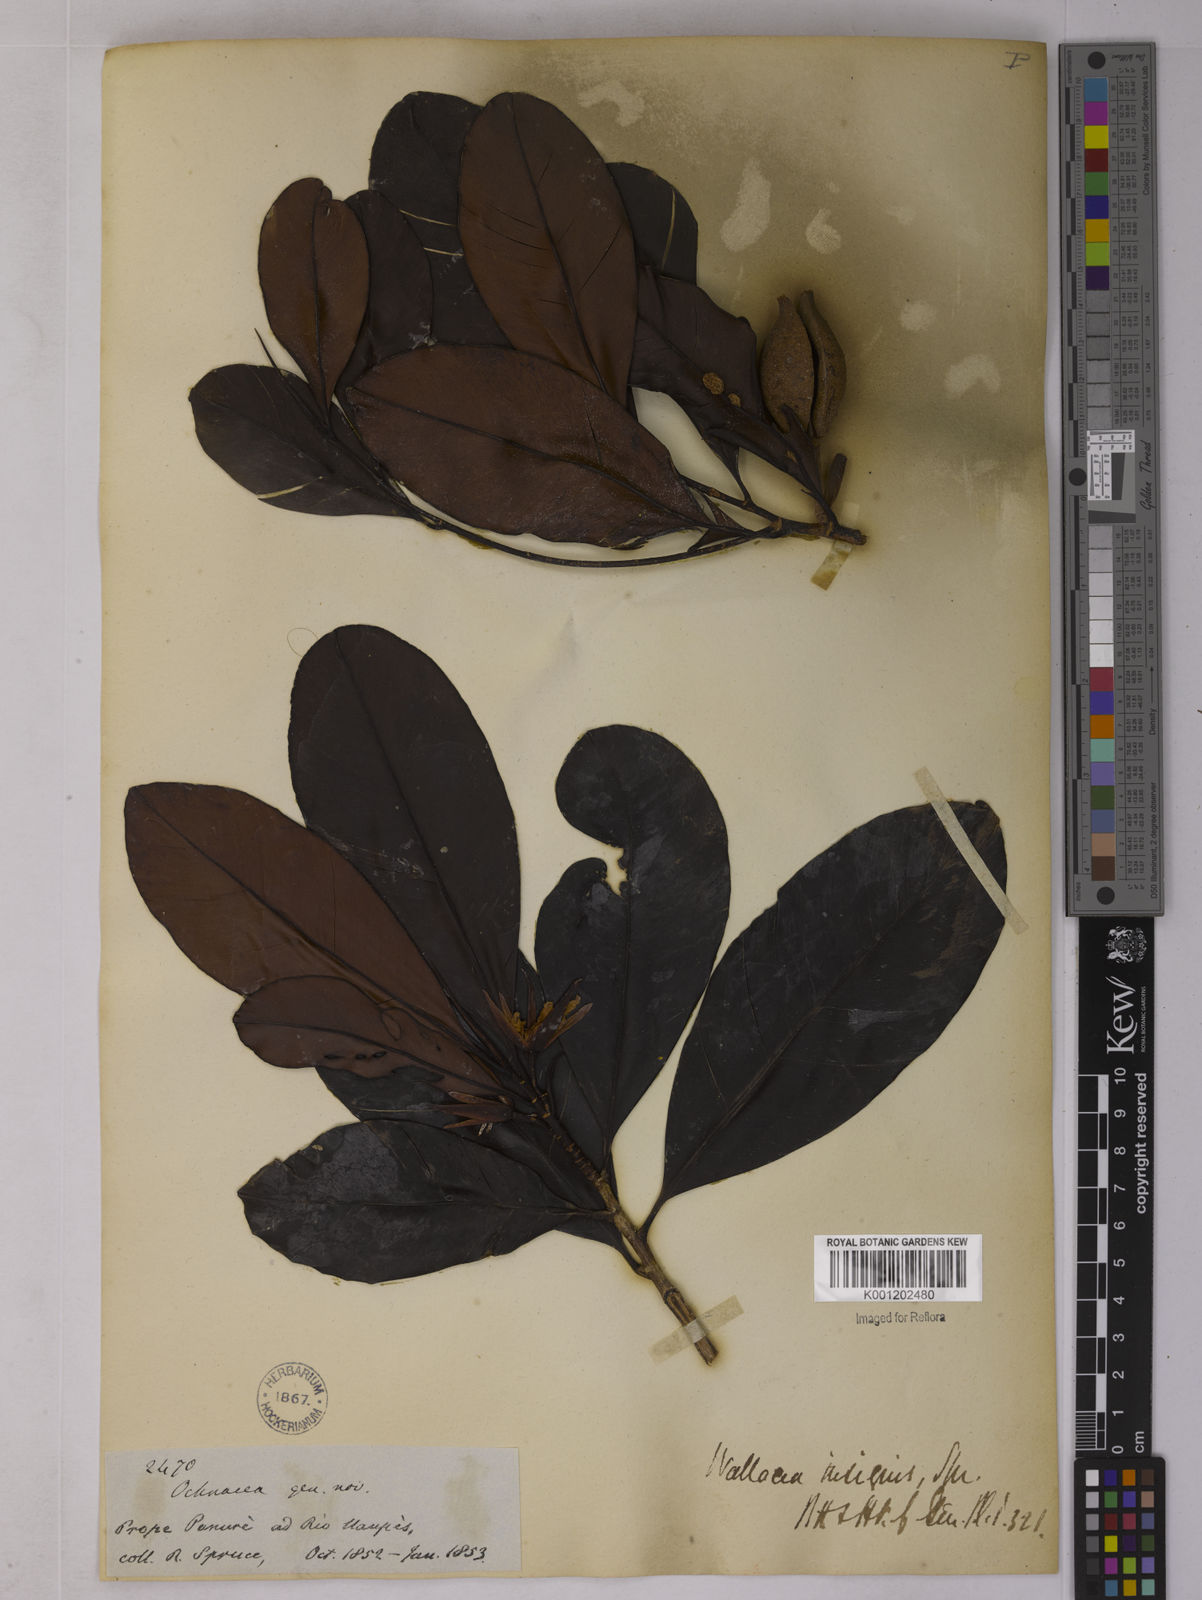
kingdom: Plantae
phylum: Tracheophyta
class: Magnoliopsida
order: Malpighiales
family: Ochnaceae
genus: Wallacea
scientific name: Wallacea insignis
